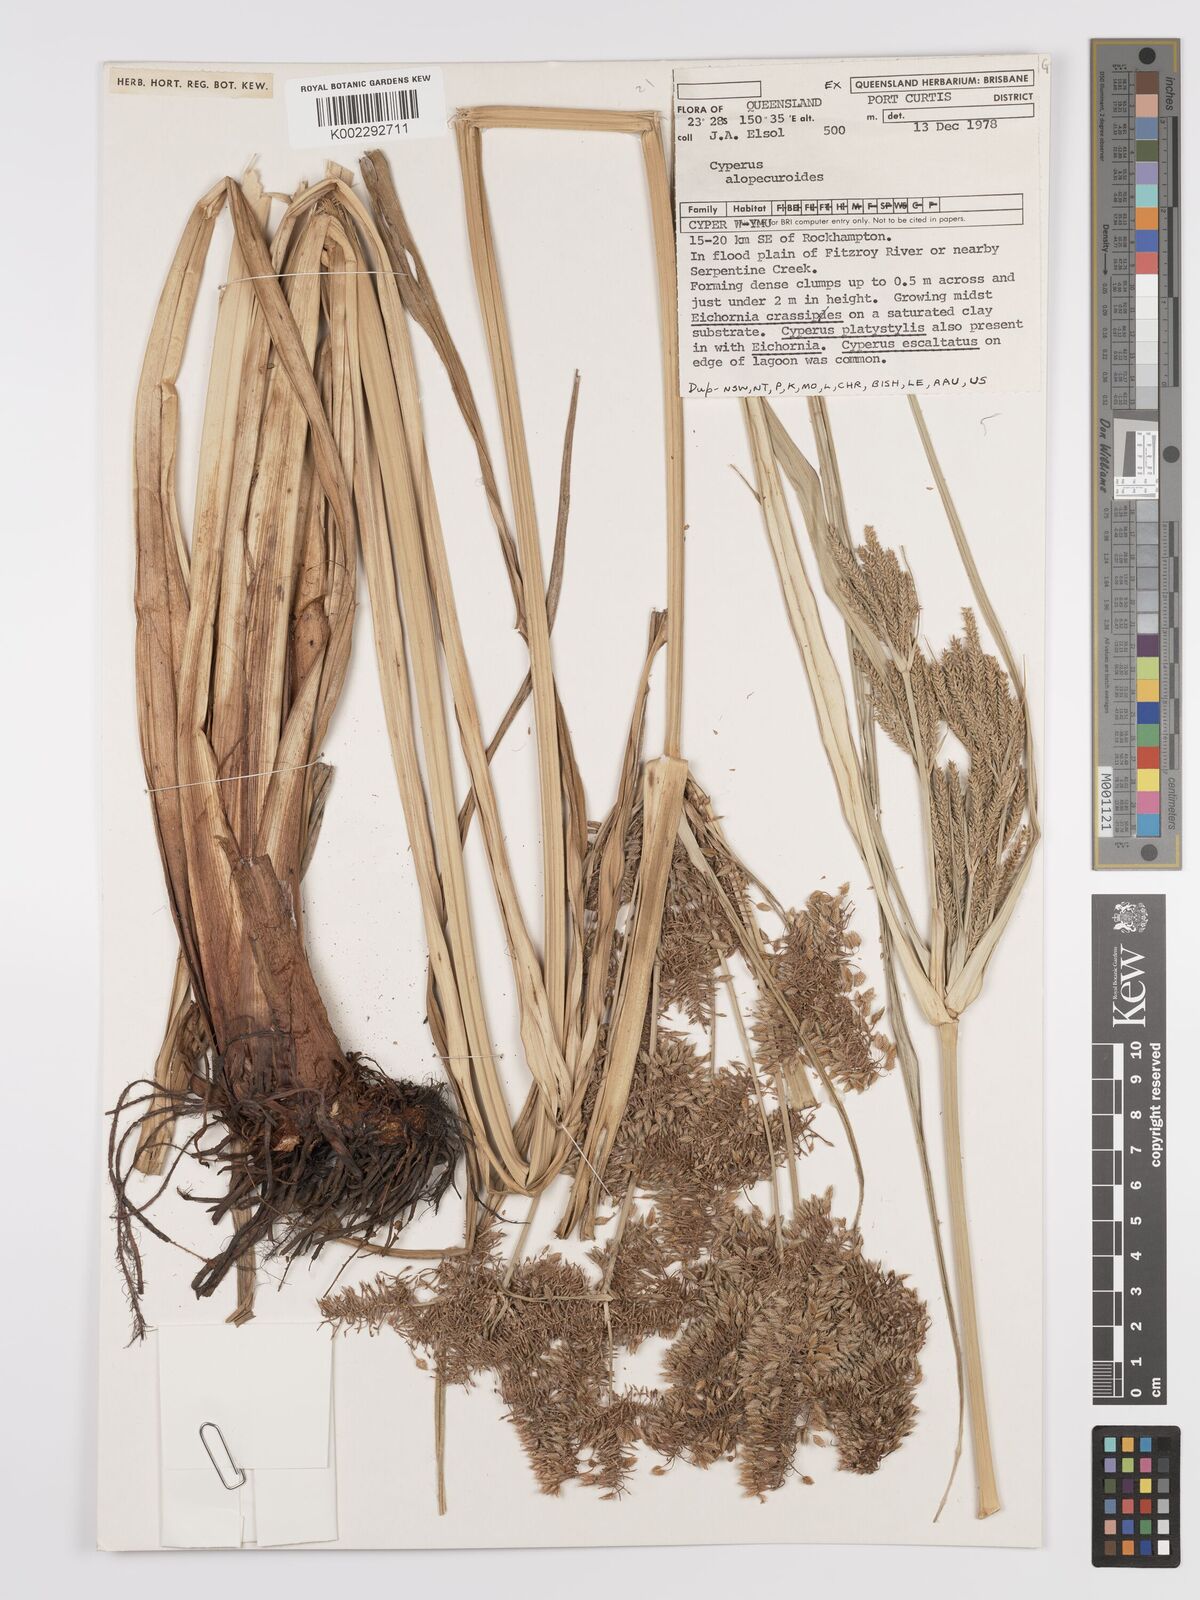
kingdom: Plantae
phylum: Tracheophyta
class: Liliopsida
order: Poales
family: Cyperaceae
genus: Cyperus
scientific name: Cyperus alopecuroides
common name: Foxtail flatsedge
